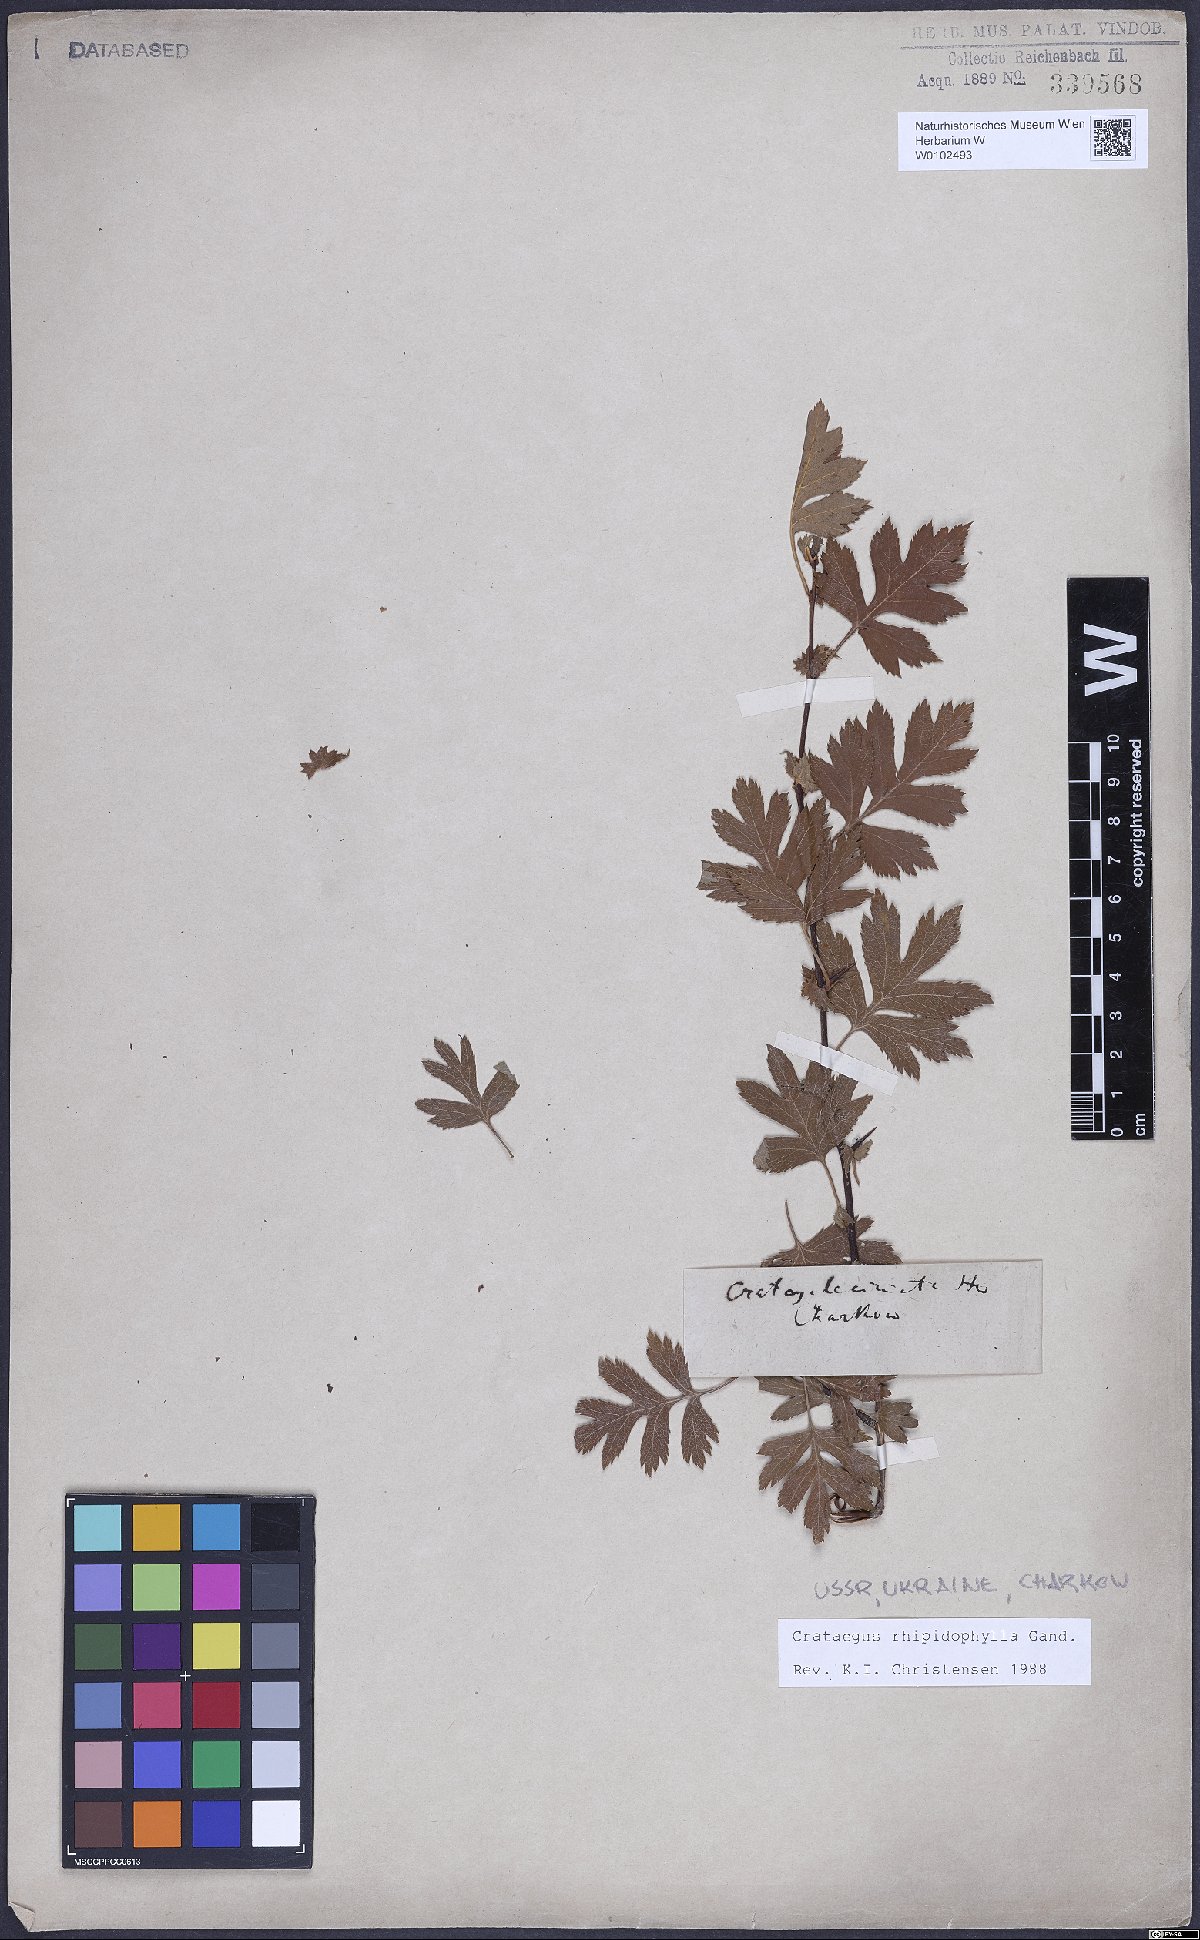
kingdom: Plantae
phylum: Tracheophyta
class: Magnoliopsida
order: Rosales
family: Rosaceae
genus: Crataegus
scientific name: Crataegus rhipidophylla
